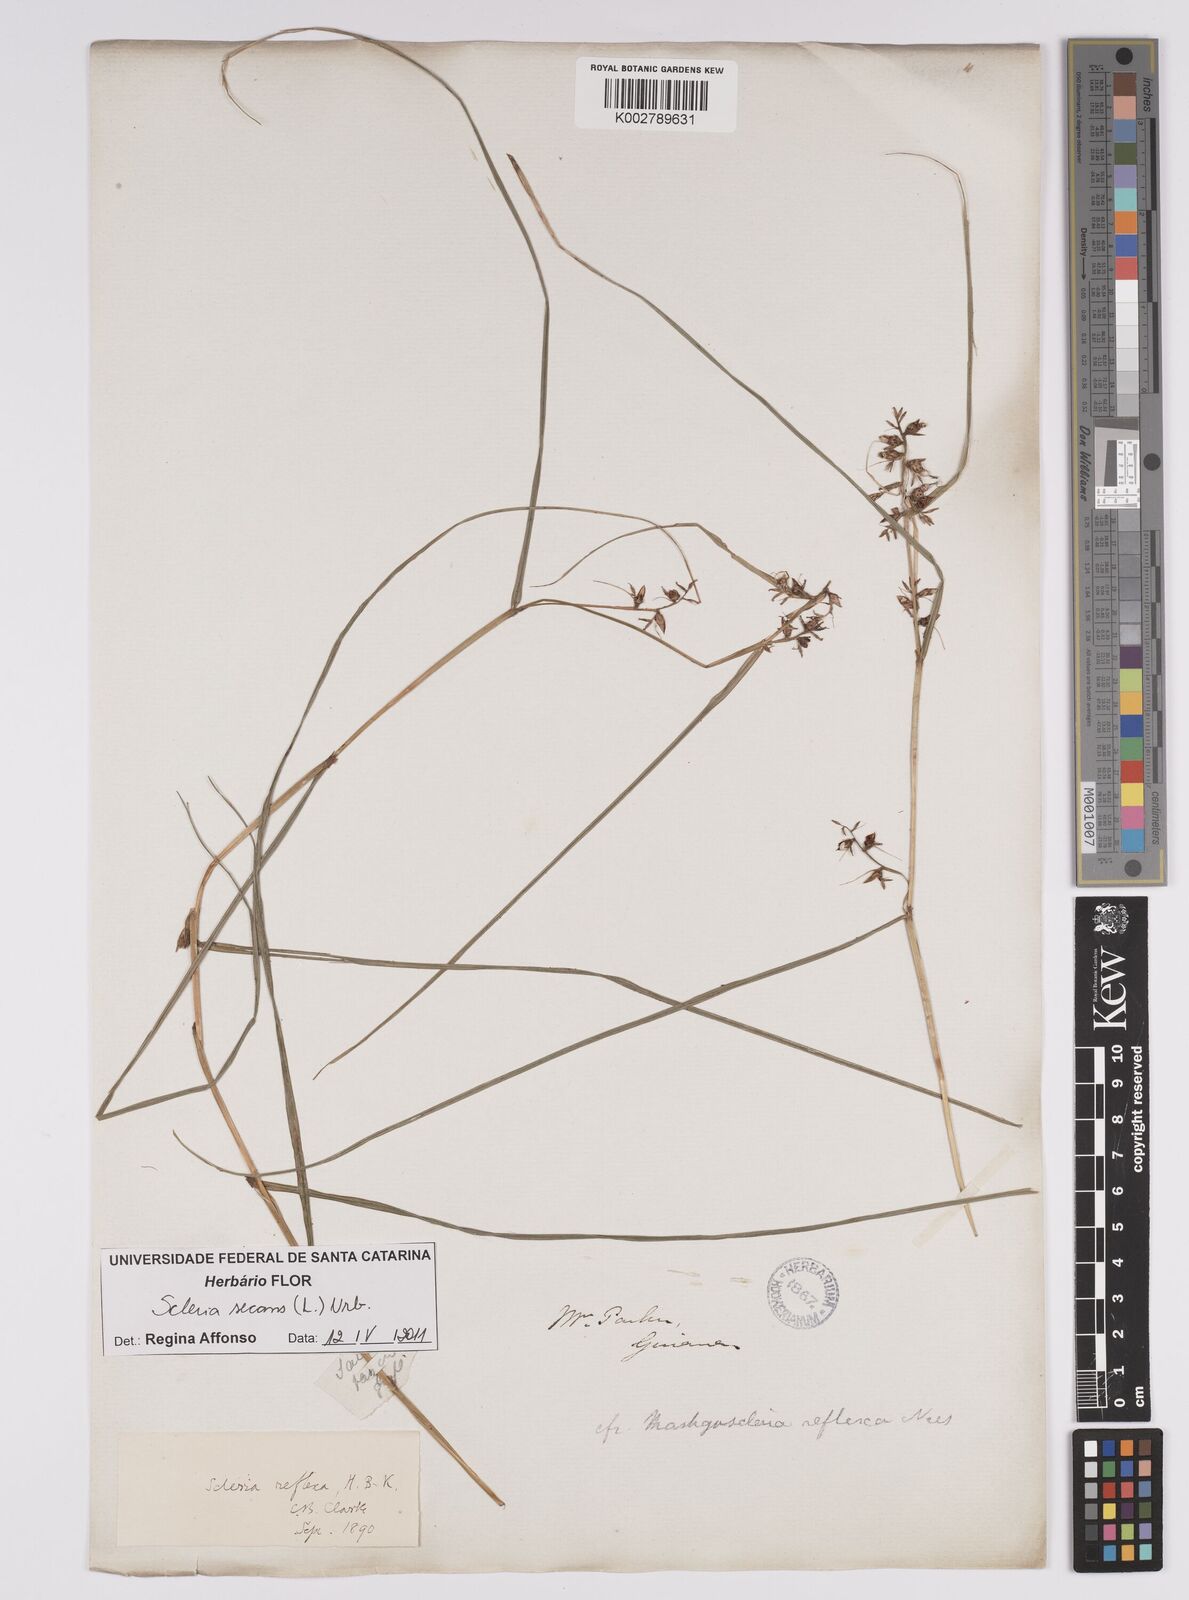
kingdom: Plantae
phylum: Tracheophyta
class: Liliopsida
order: Poales
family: Cyperaceae
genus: Scleria
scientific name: Scleria secans
